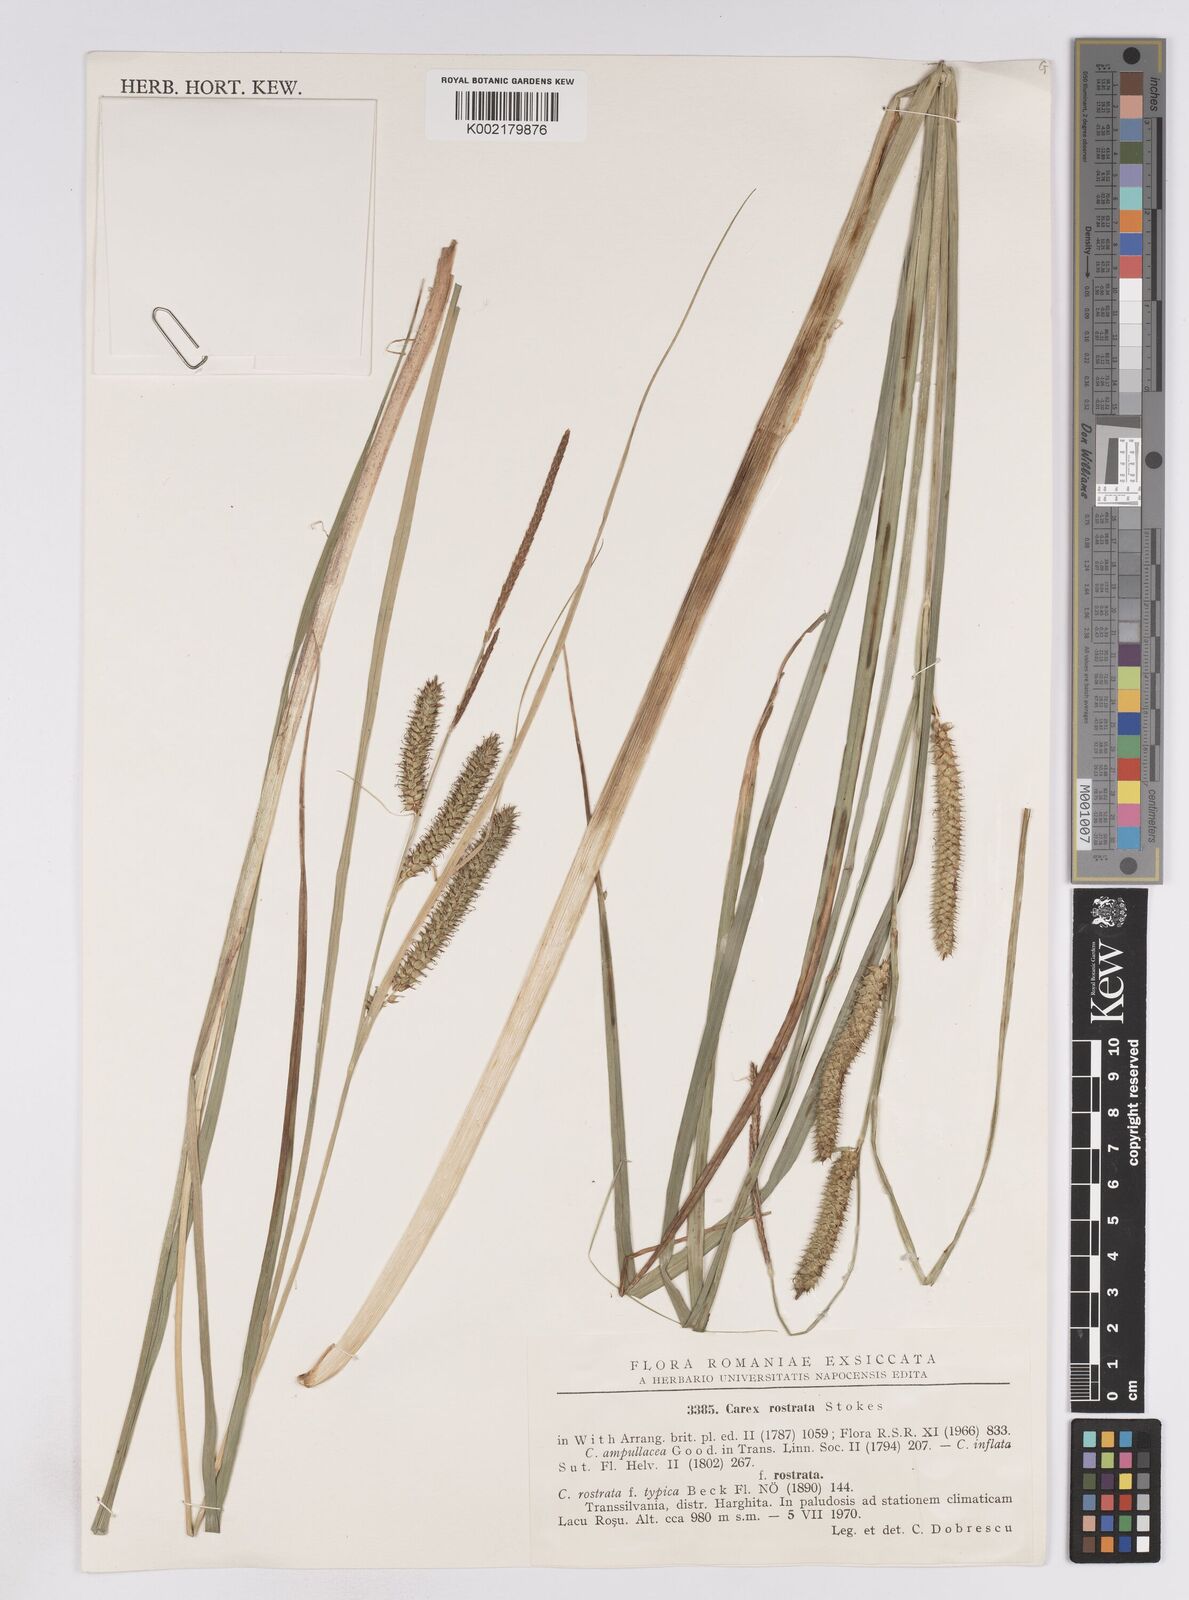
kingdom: Plantae
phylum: Tracheophyta
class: Liliopsida
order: Poales
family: Cyperaceae
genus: Carex
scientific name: Carex rostrata
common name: Bottle sedge
